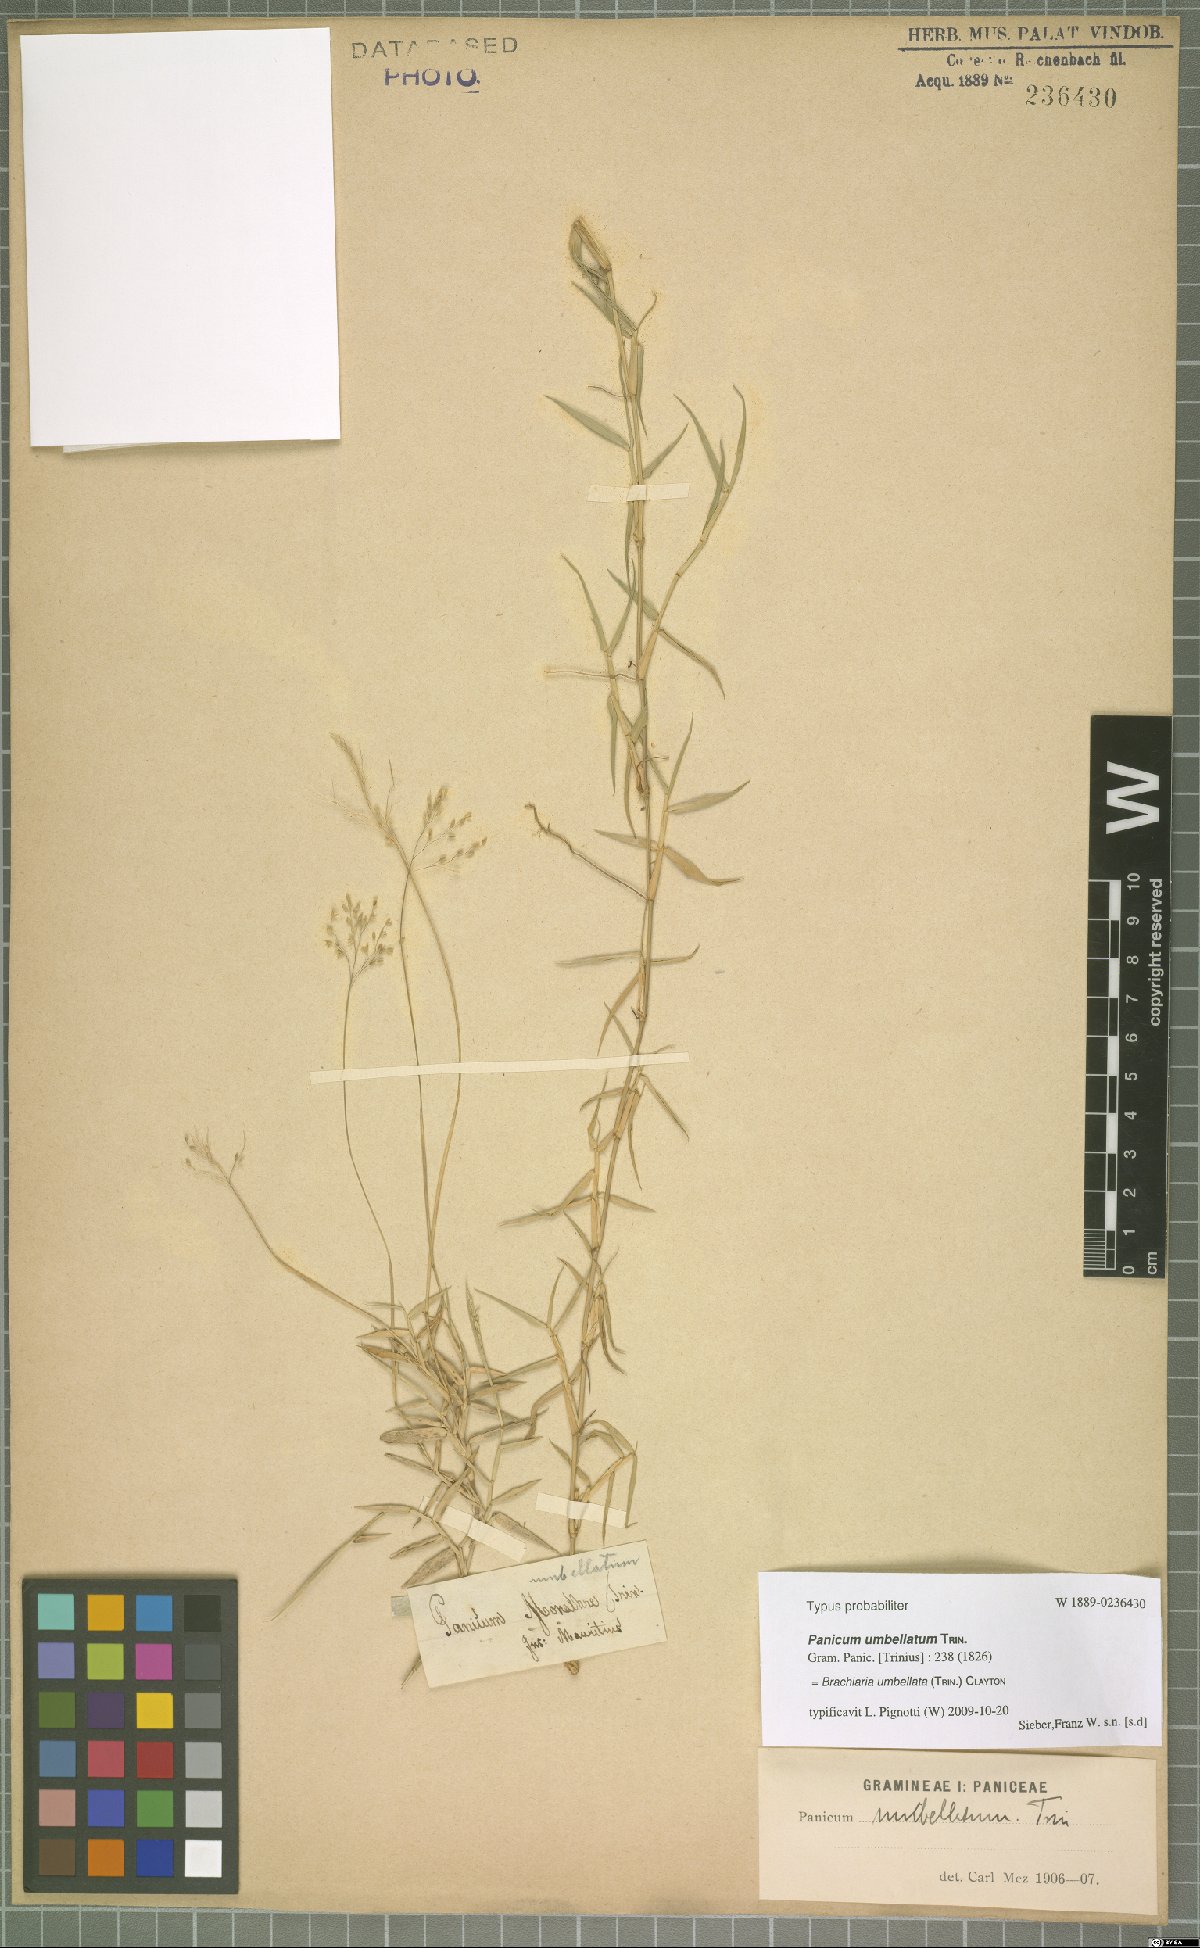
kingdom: Plantae
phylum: Tracheophyta
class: Liliopsida
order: Poales
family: Poaceae
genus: Urochloa
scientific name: Urochloa Brachiaria umbellata
